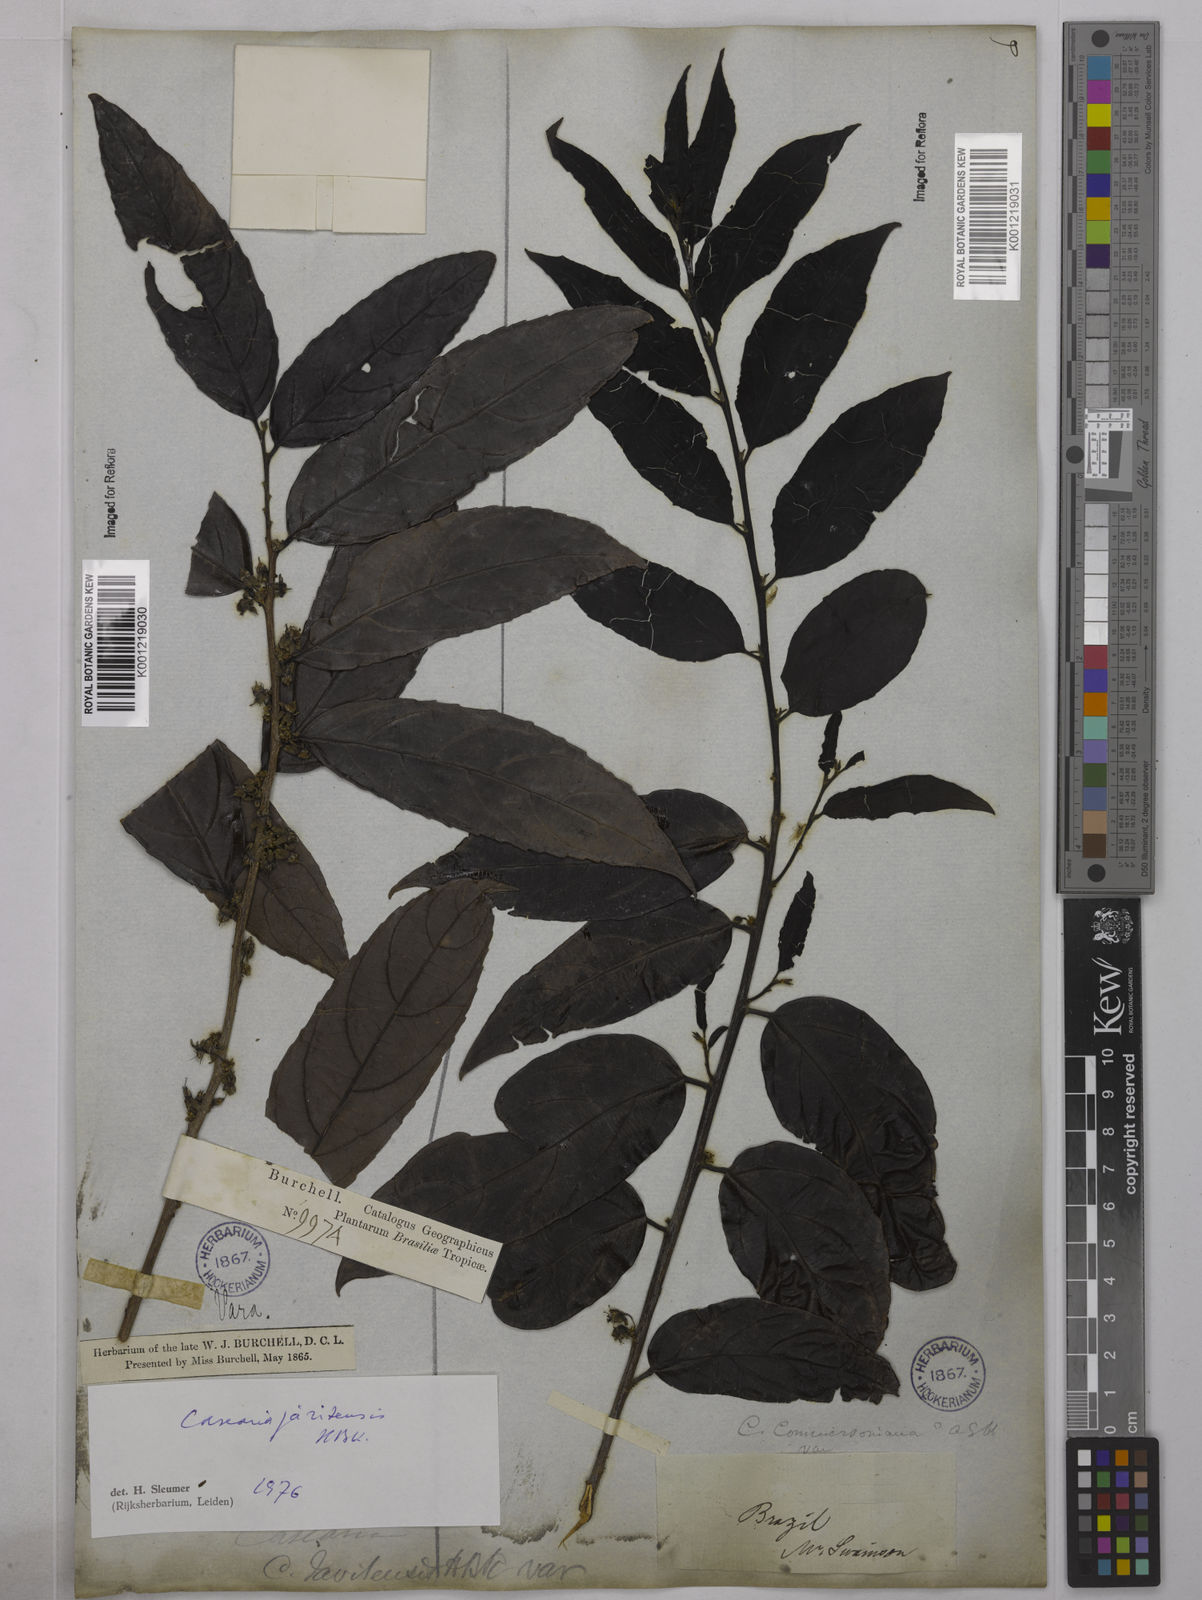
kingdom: Plantae
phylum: Tracheophyta
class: Magnoliopsida
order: Malpighiales
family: Salicaceae
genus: Piparea
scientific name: Piparea multiflora
